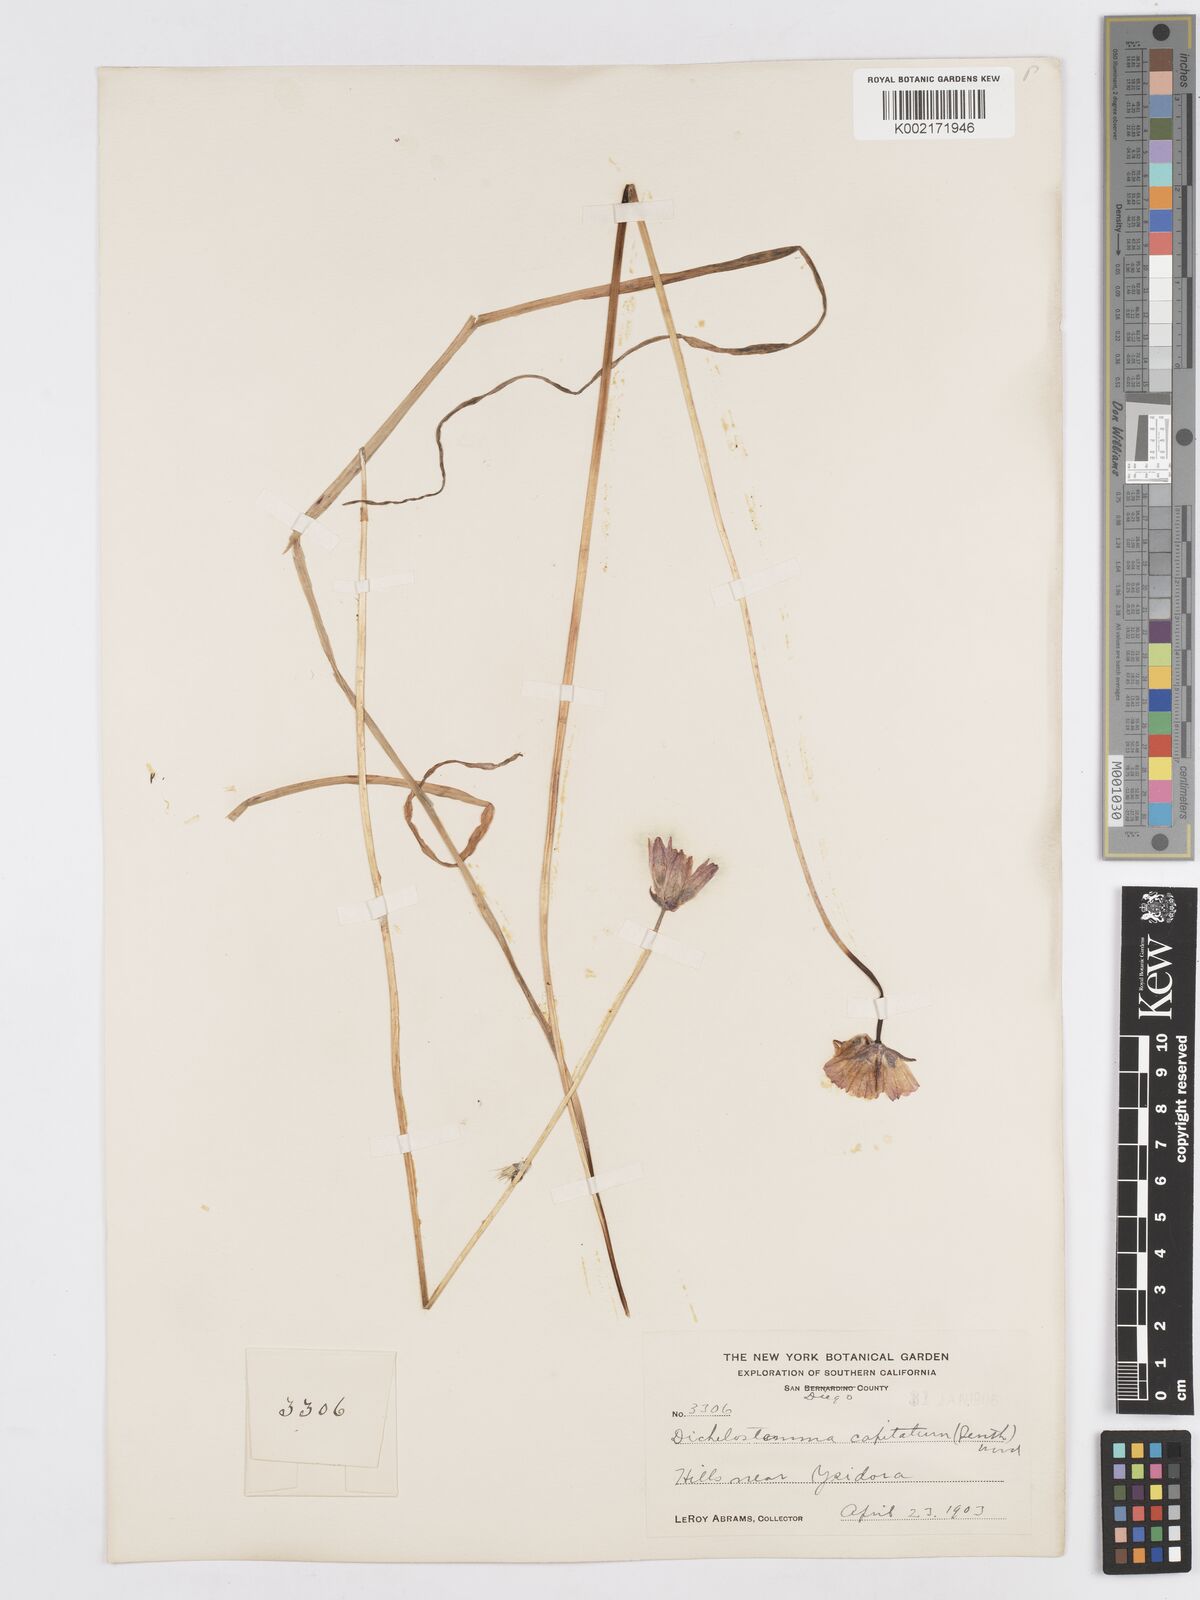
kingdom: Plantae
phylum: Tracheophyta
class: Liliopsida
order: Asparagales
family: Asparagaceae
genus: Dichelostemma
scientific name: Dichelostemma congestum
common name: Fork-tooth ookow
